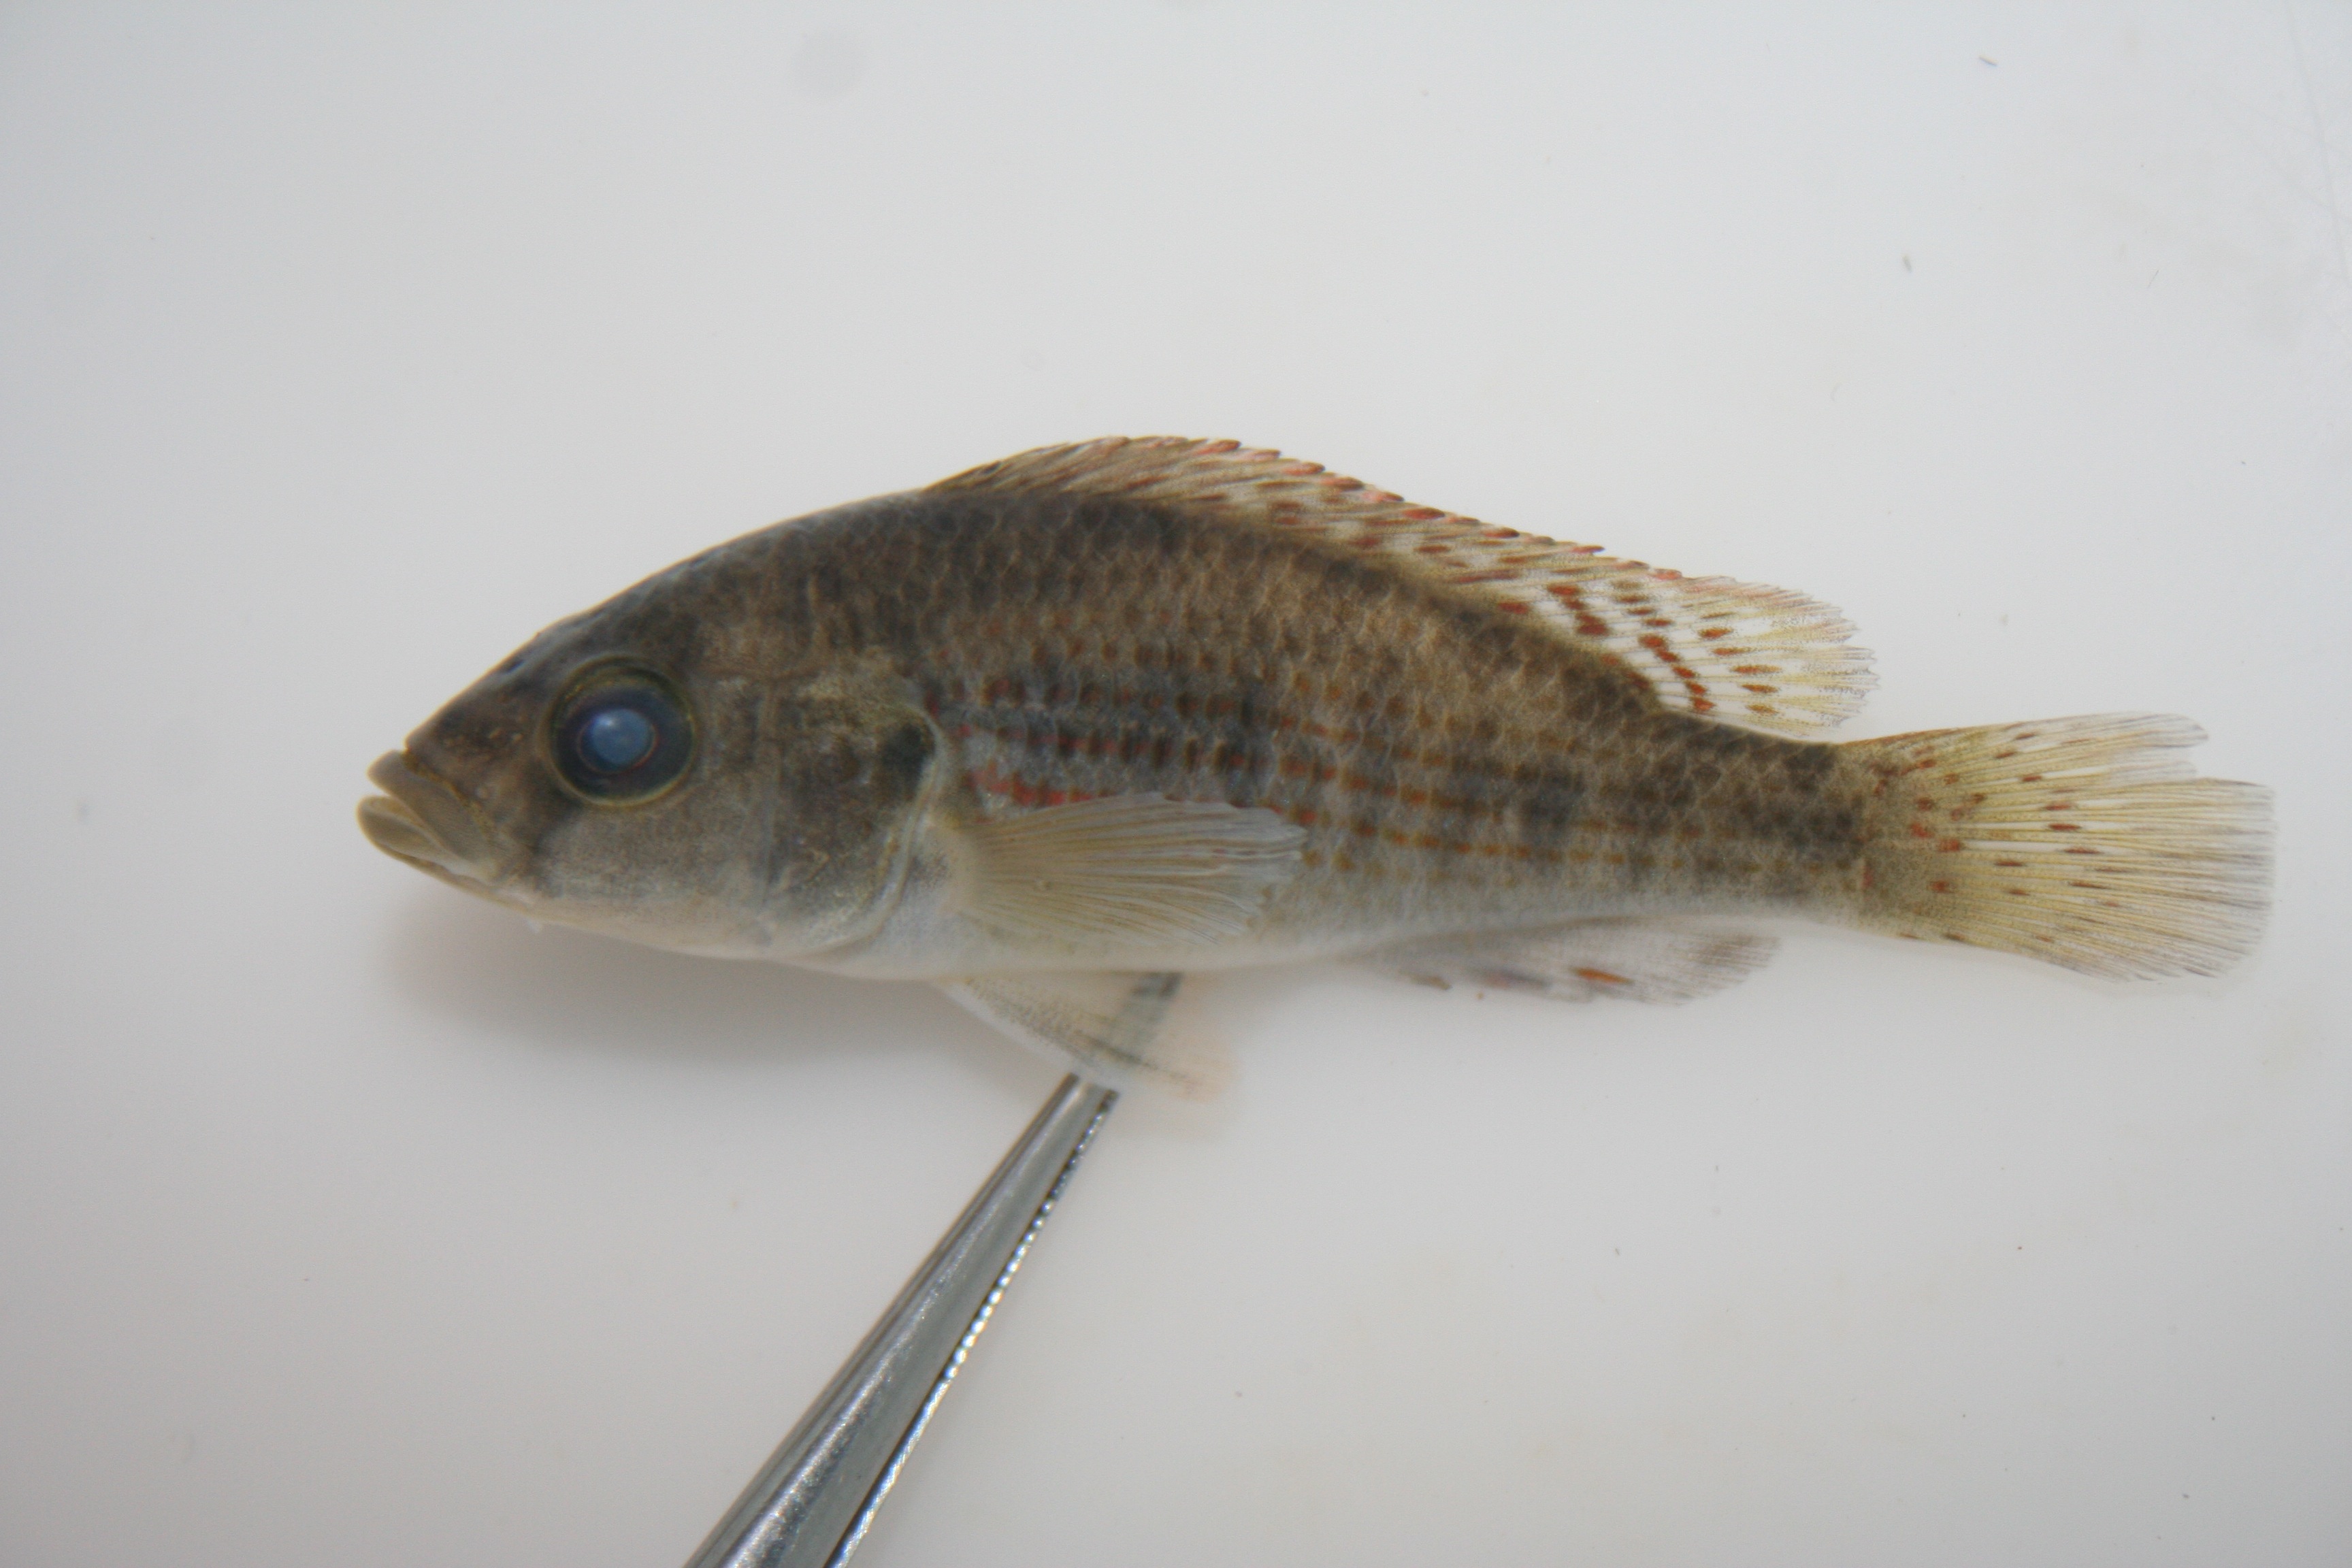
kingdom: Animalia
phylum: Chordata
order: Perciformes
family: Cichlidae
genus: Serranochromis
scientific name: Serranochromis
